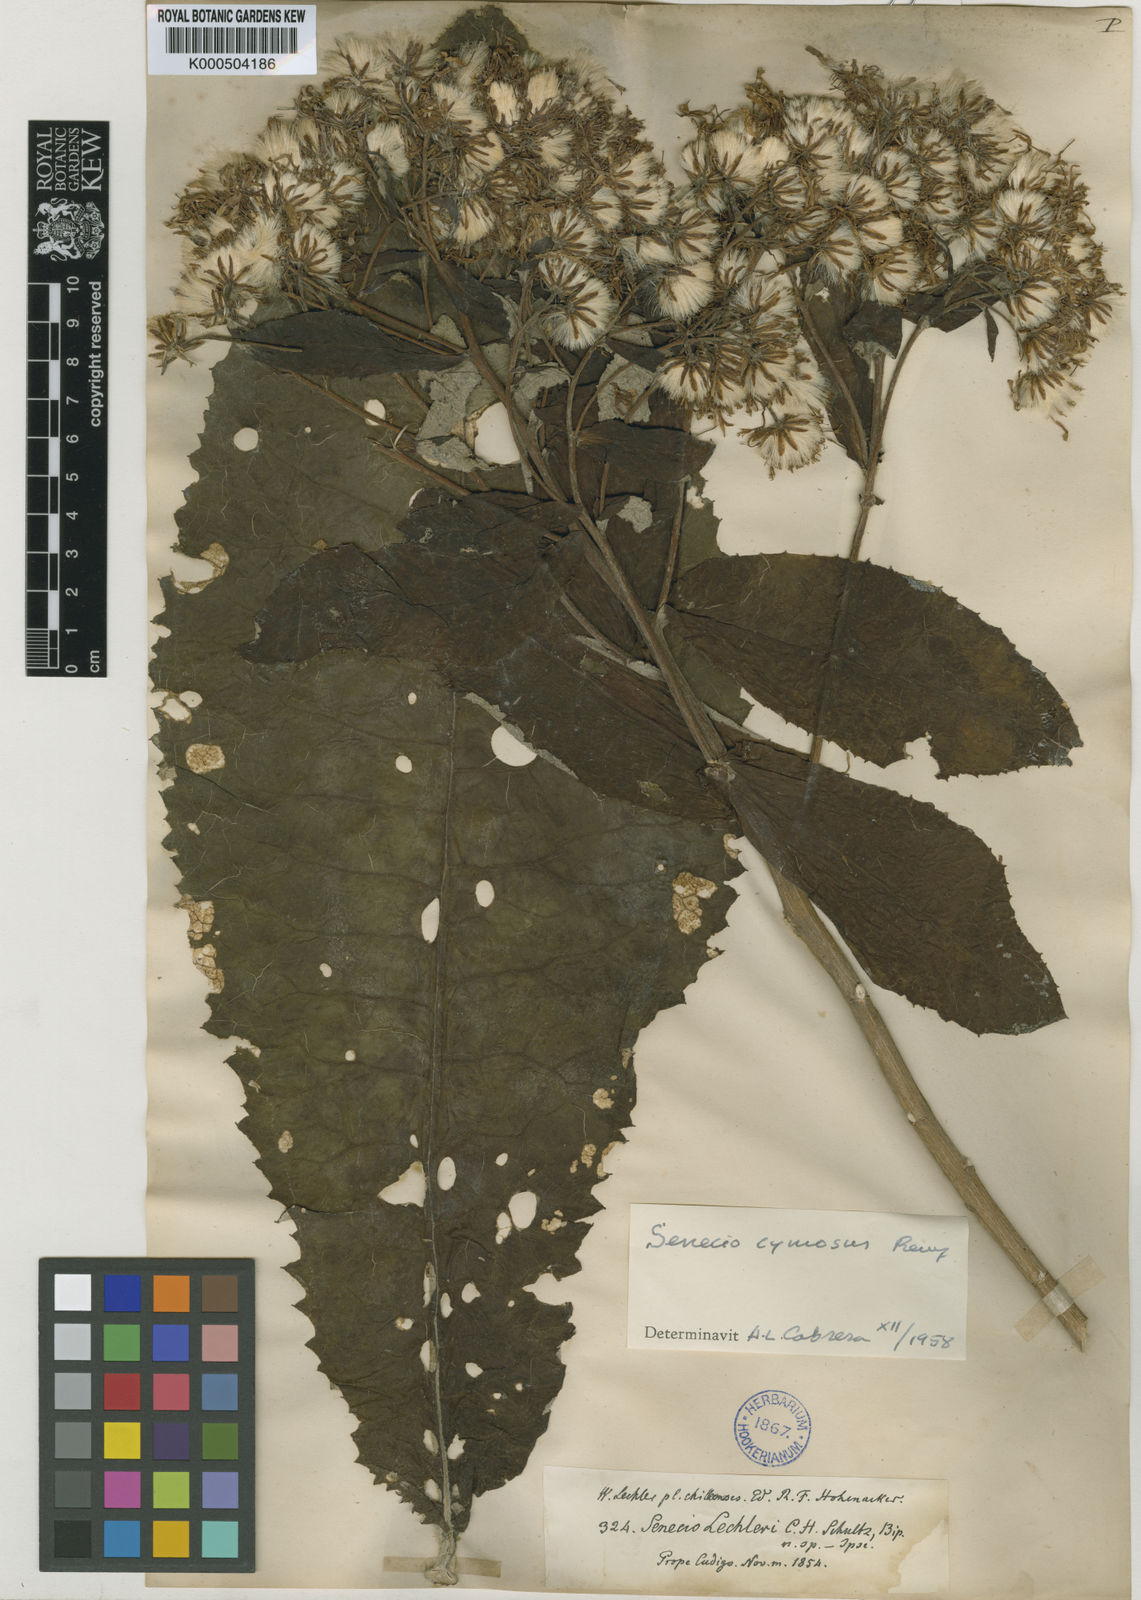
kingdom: Plantae
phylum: Tracheophyta
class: Magnoliopsida
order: Asterales
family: Asteraceae
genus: Acrisione
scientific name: Acrisione cymosa
